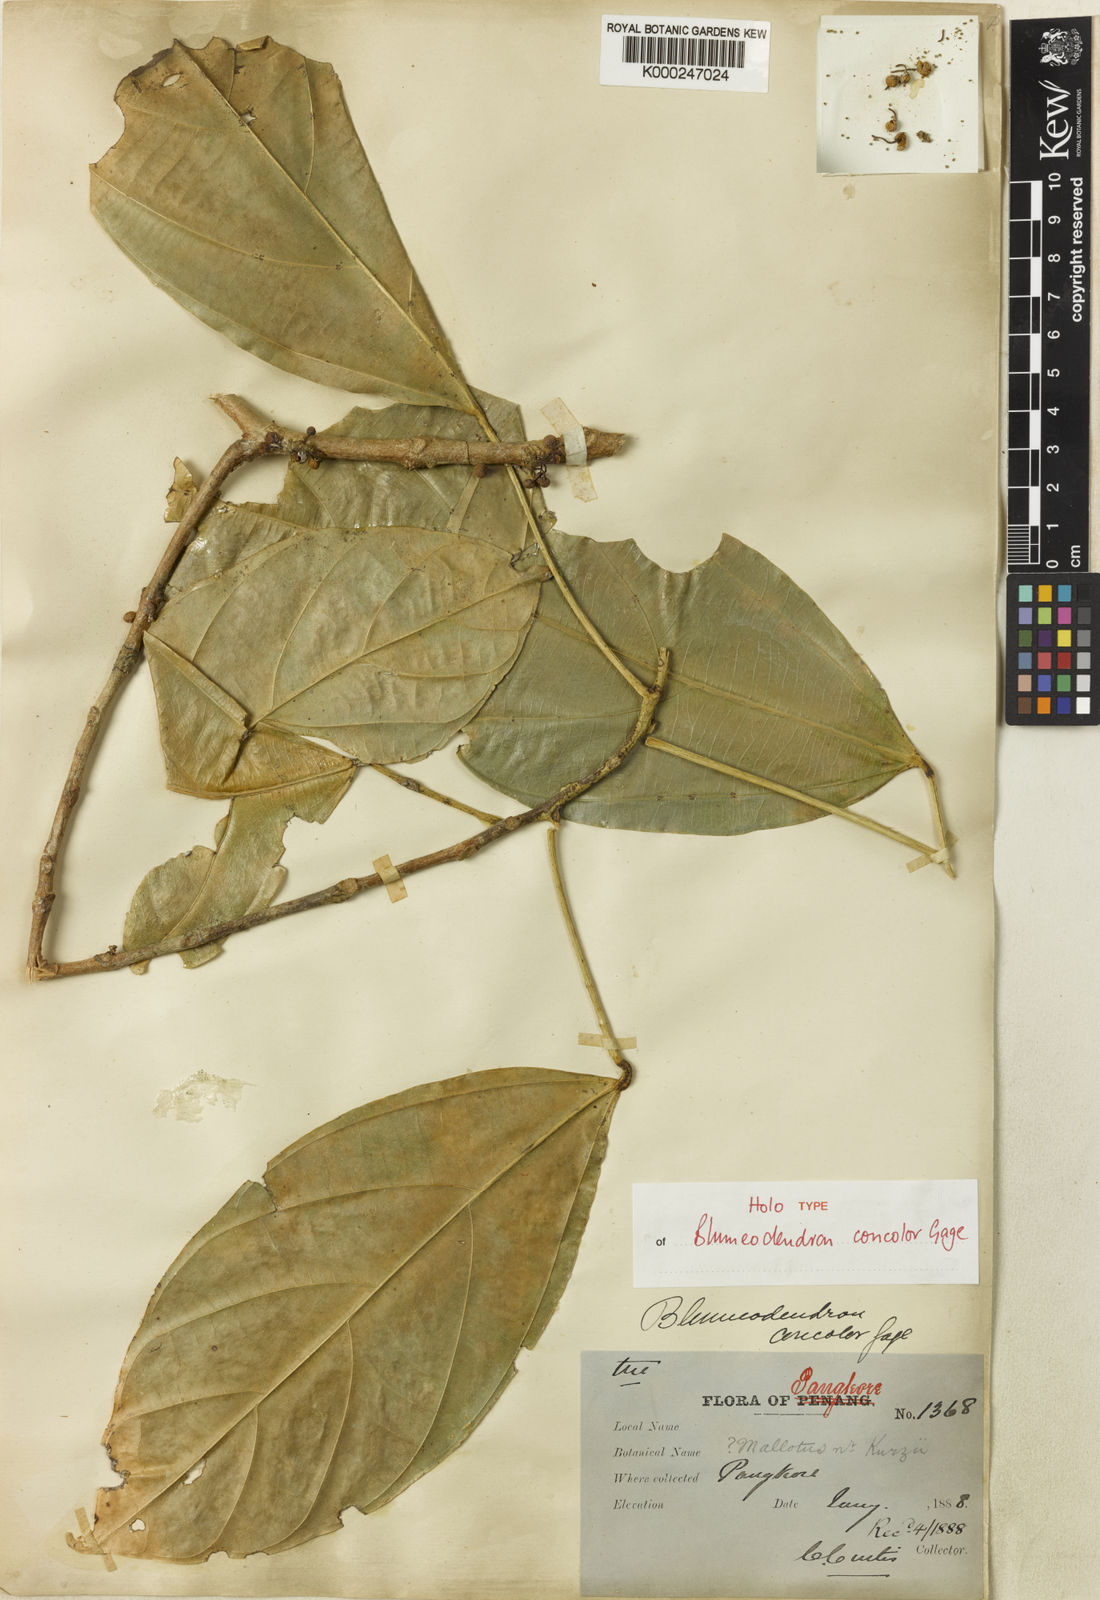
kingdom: Plantae
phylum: Tracheophyta
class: Magnoliopsida
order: Malpighiales
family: Euphorbiaceae
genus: Blumeodendron
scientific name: Blumeodendron borneense
